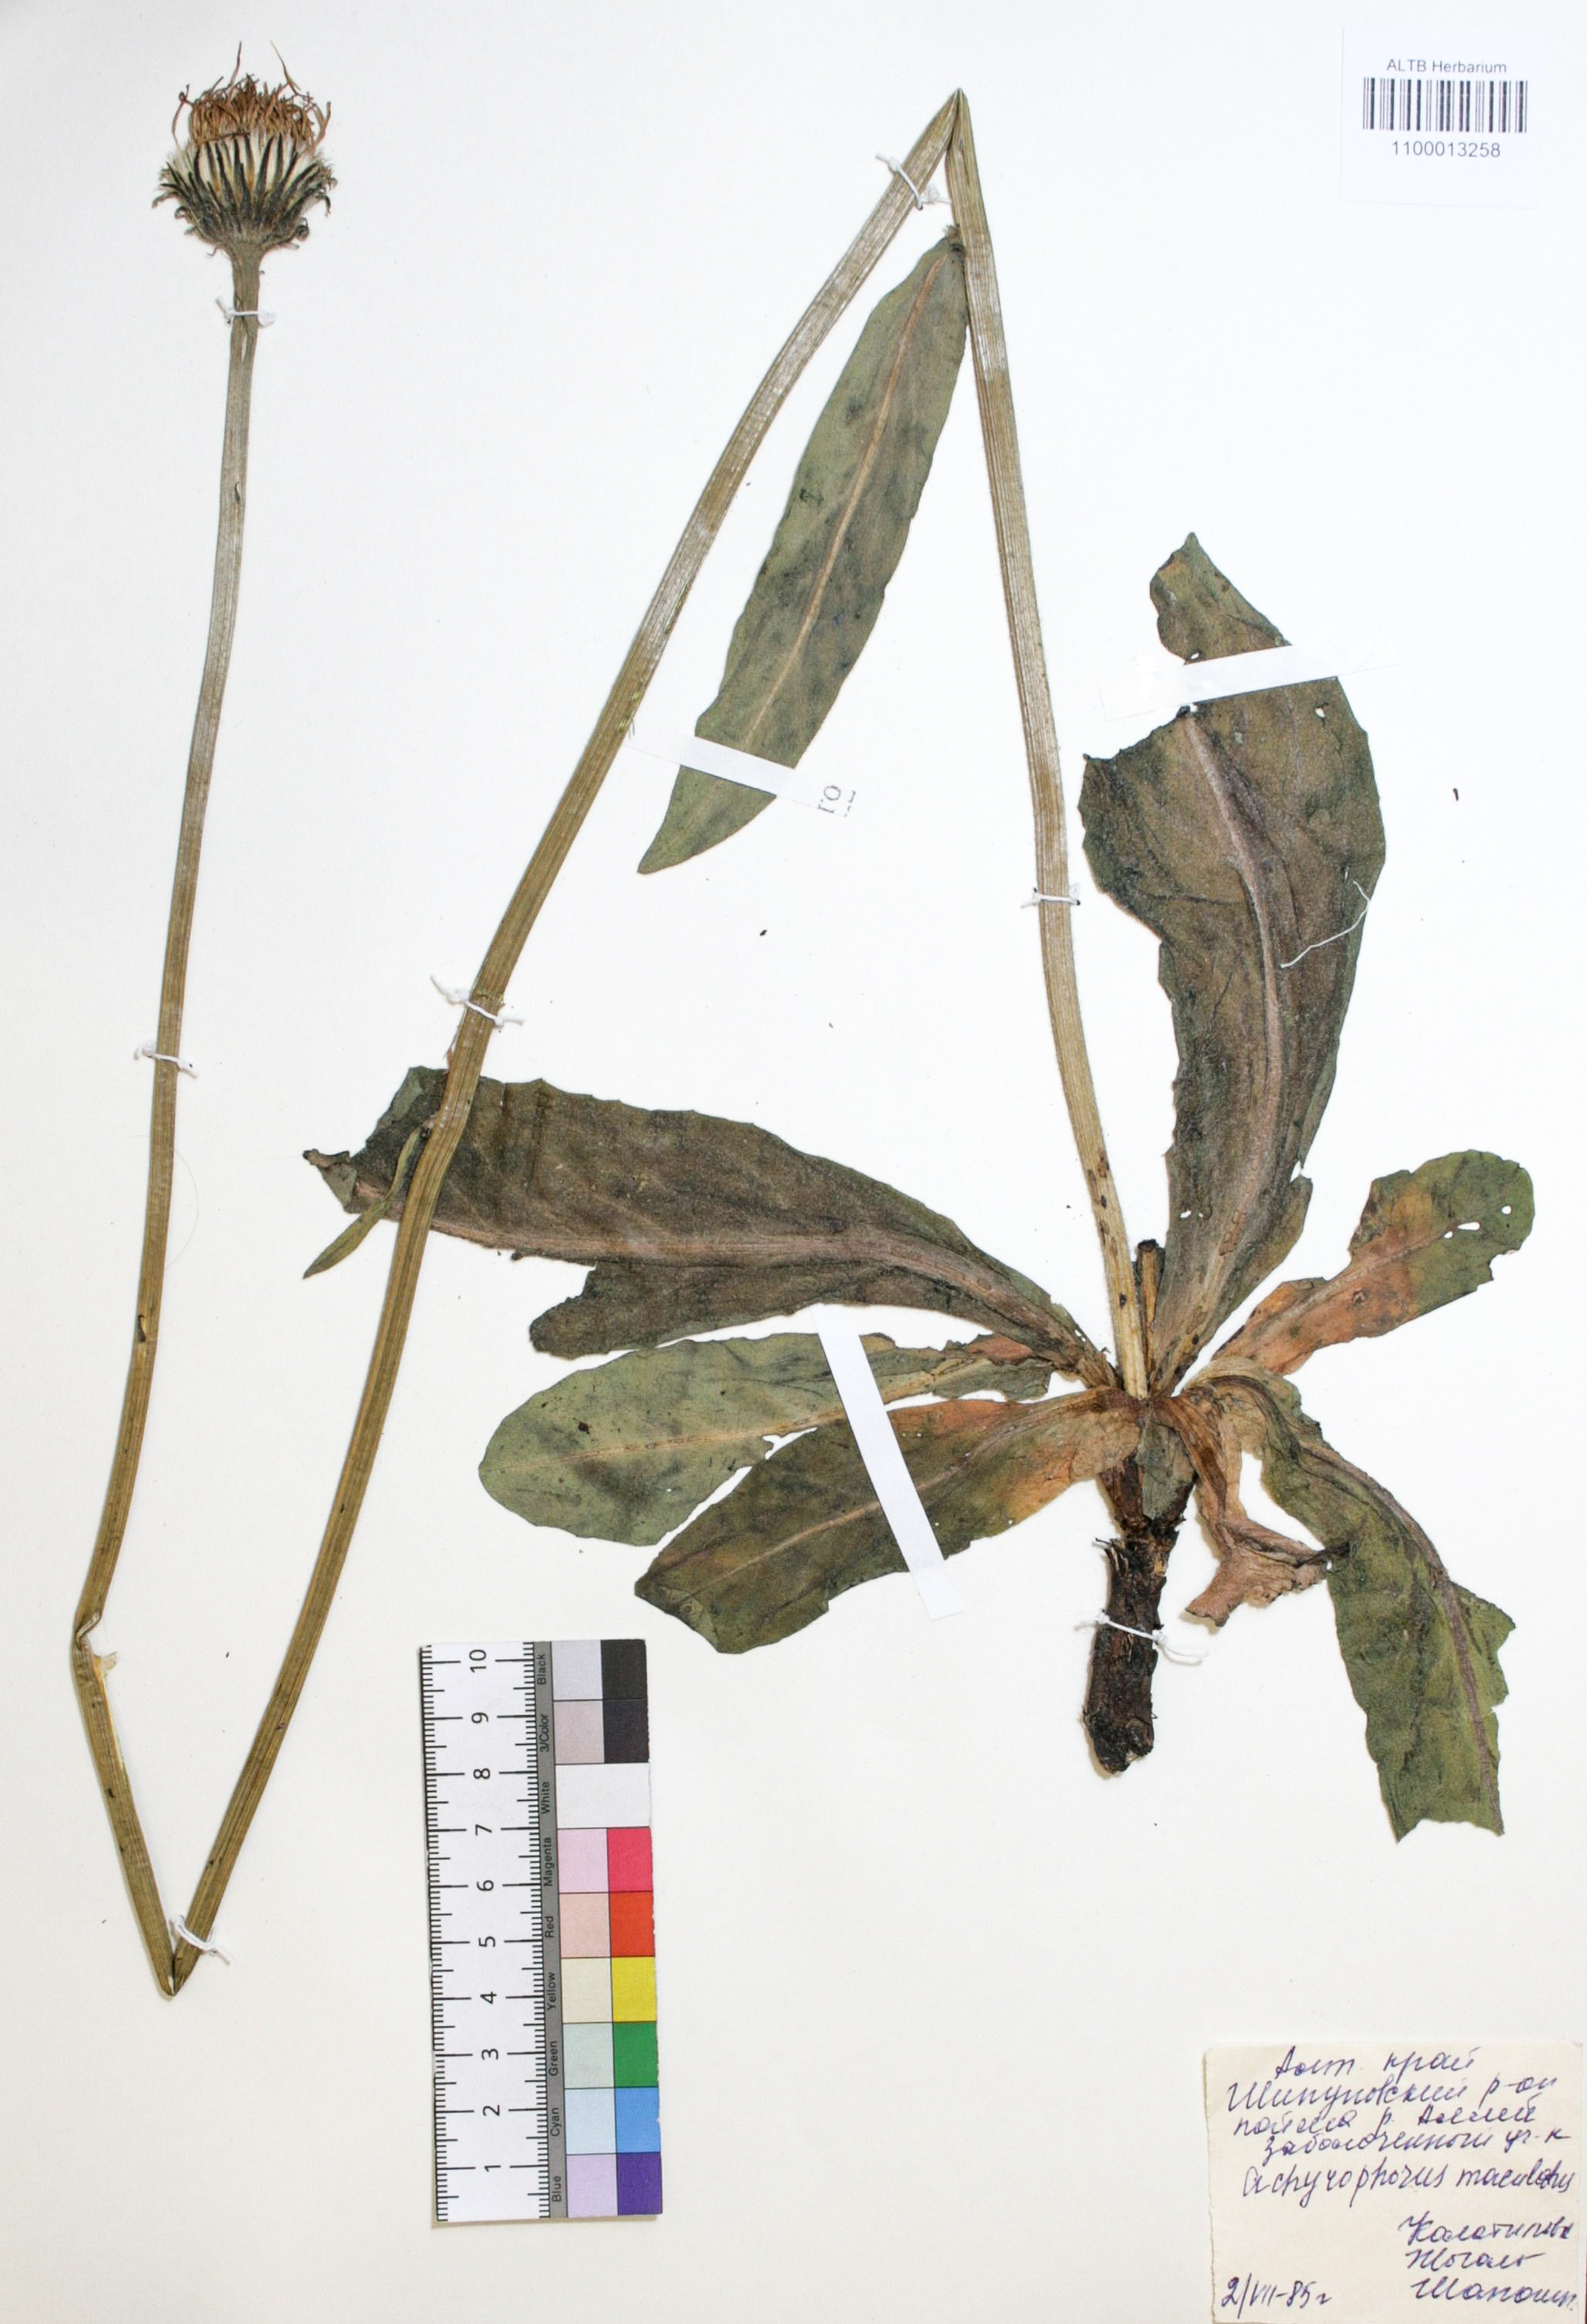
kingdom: Plantae
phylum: Tracheophyta
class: Magnoliopsida
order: Asterales
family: Asteraceae
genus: Trommsdorffia
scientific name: Trommsdorffia maculata
